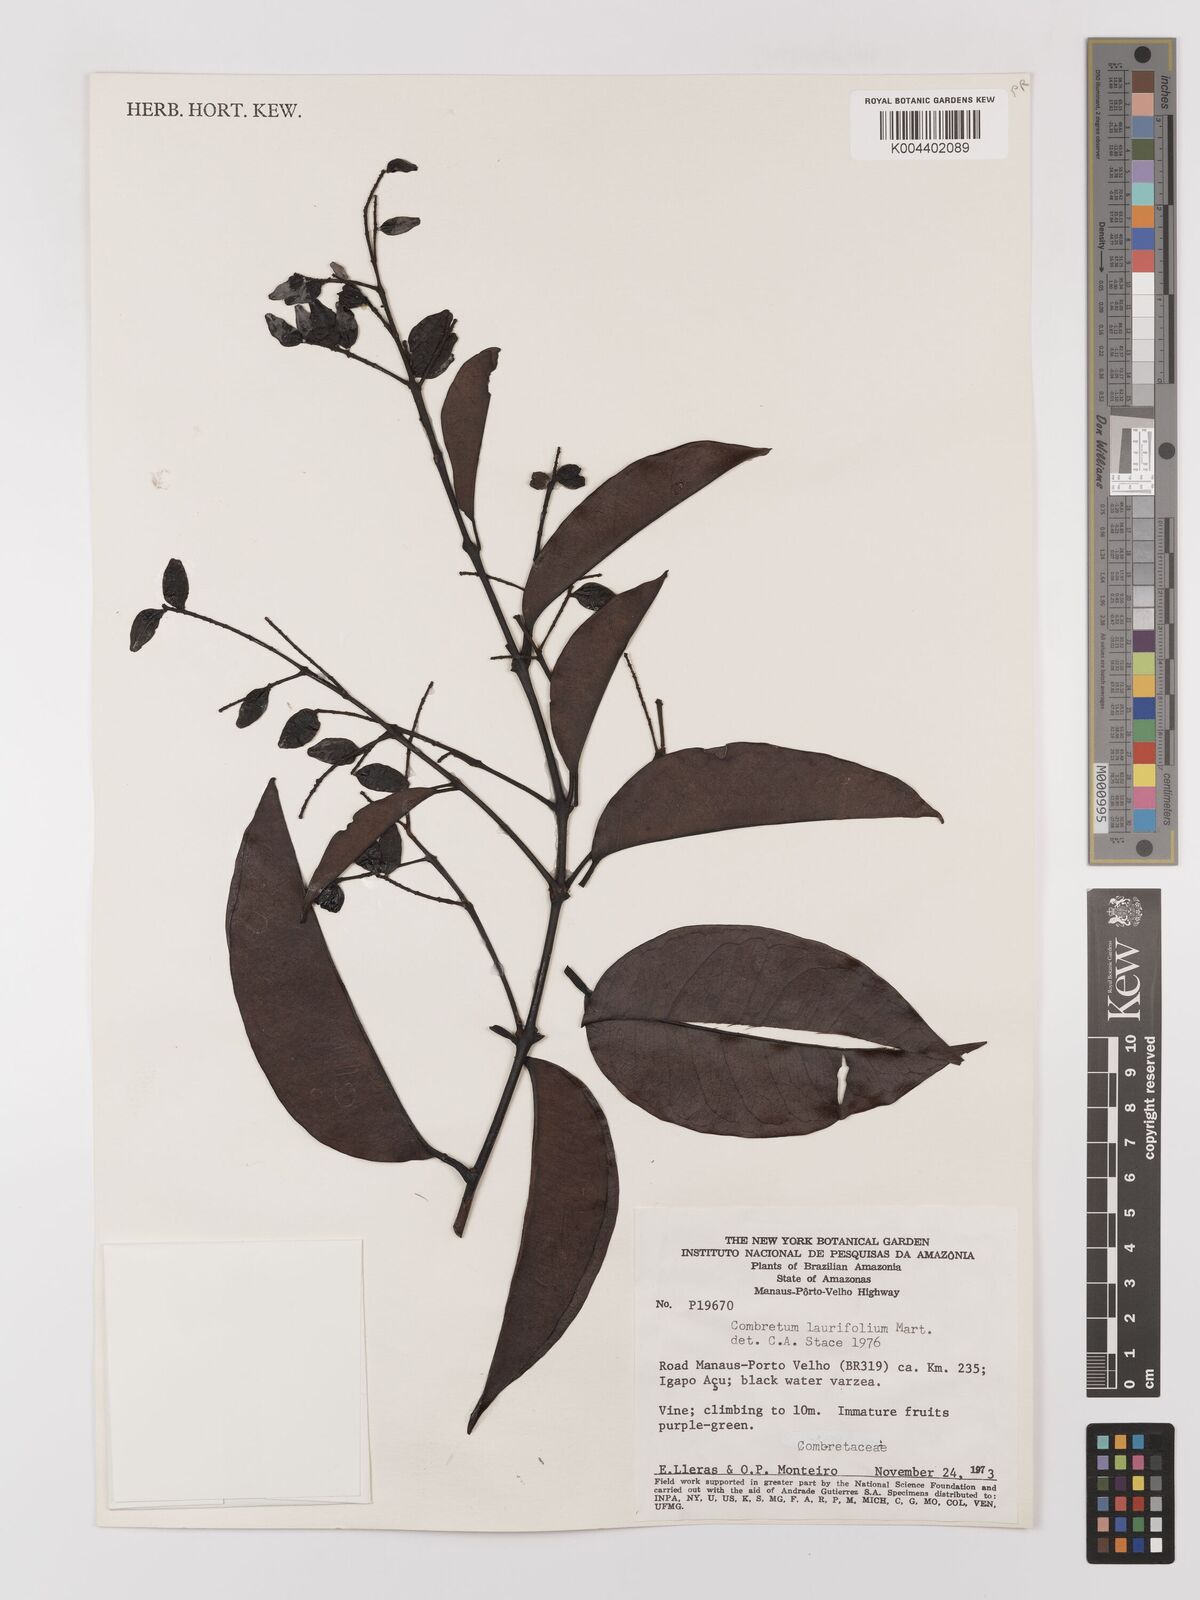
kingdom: Plantae
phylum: Tracheophyta
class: Magnoliopsida
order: Myrtales
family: Combretaceae
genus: Combretum
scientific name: Combretum
